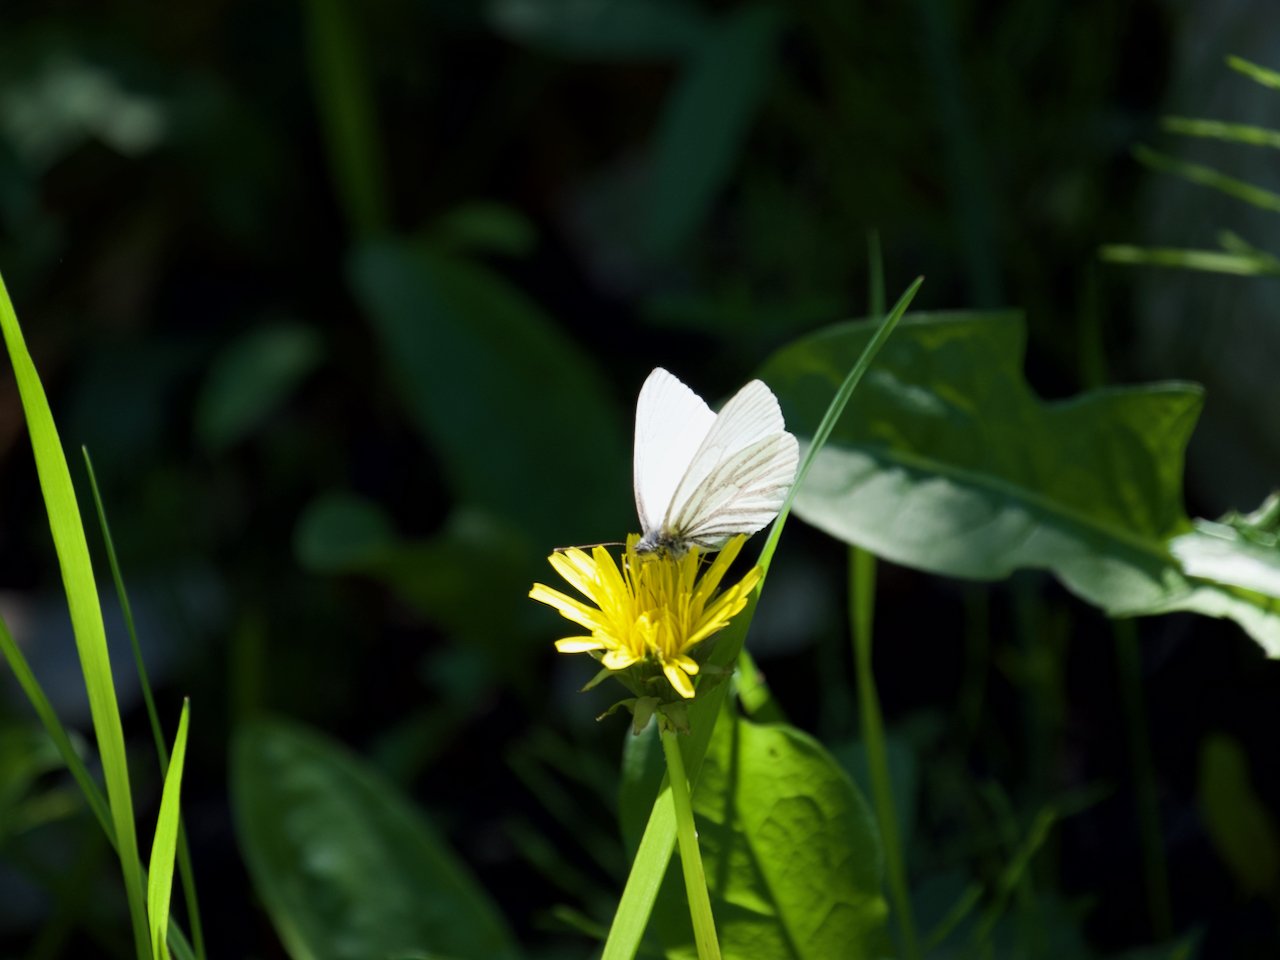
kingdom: Animalia
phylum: Arthropoda
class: Insecta
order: Lepidoptera
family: Pieridae
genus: Pieris
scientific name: Pieris oleracea
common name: Mustard White
